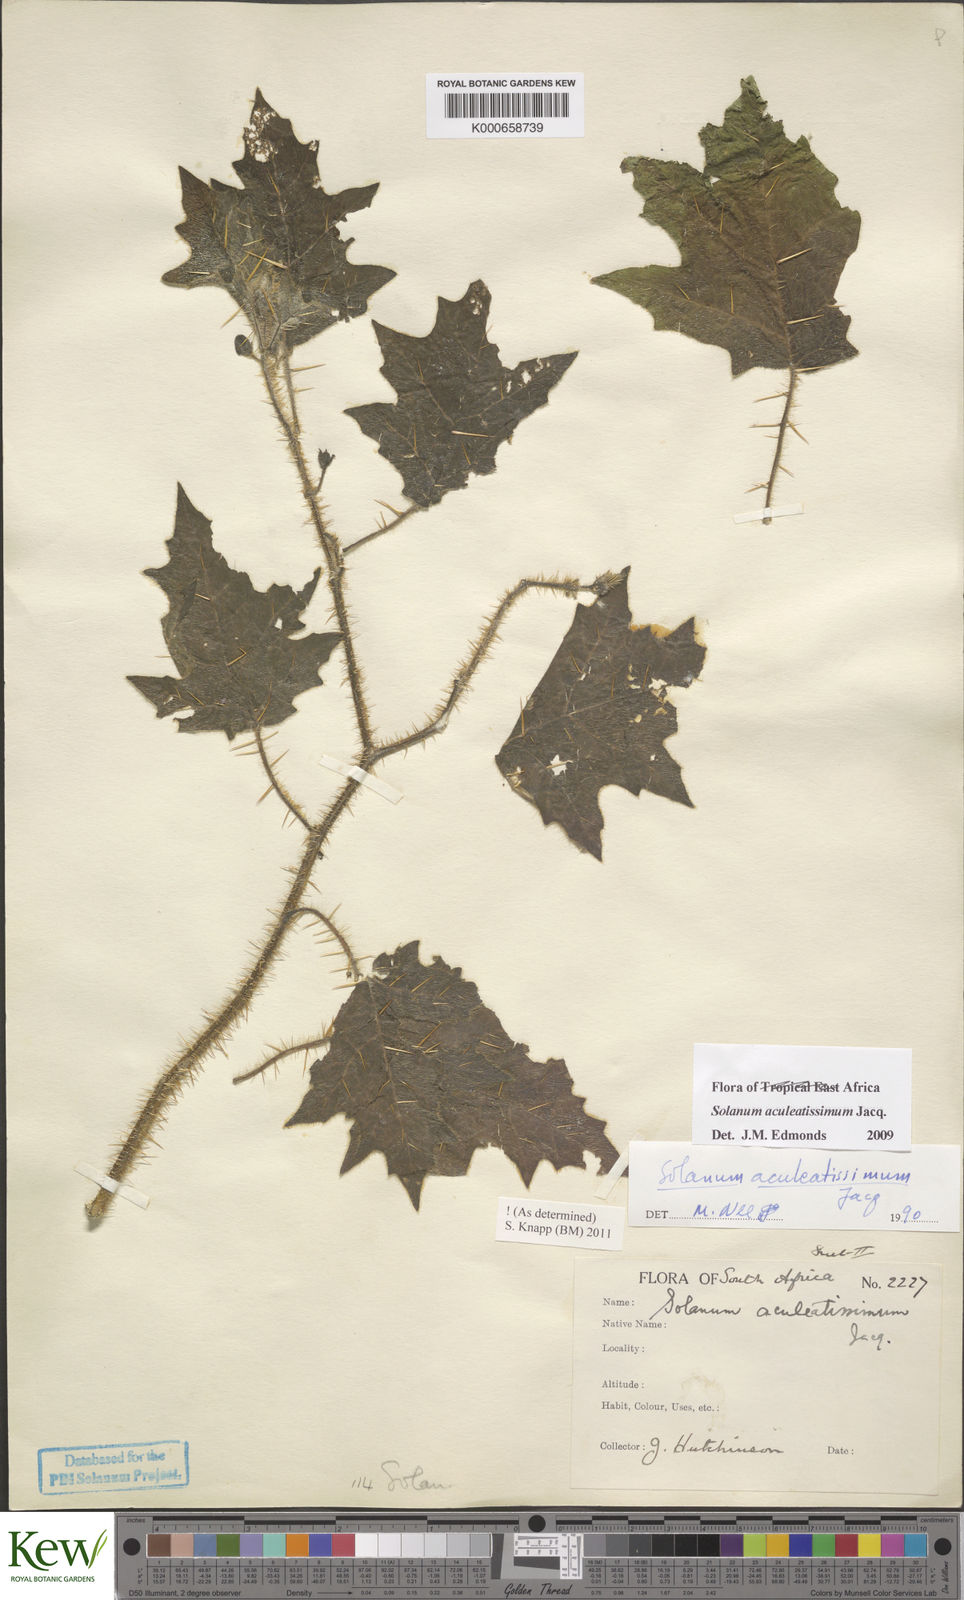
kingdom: Plantae
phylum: Tracheophyta
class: Magnoliopsida
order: Solanales
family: Solanaceae
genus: Solanum
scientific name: Solanum aculeatissimum
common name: Dutch eggplant
